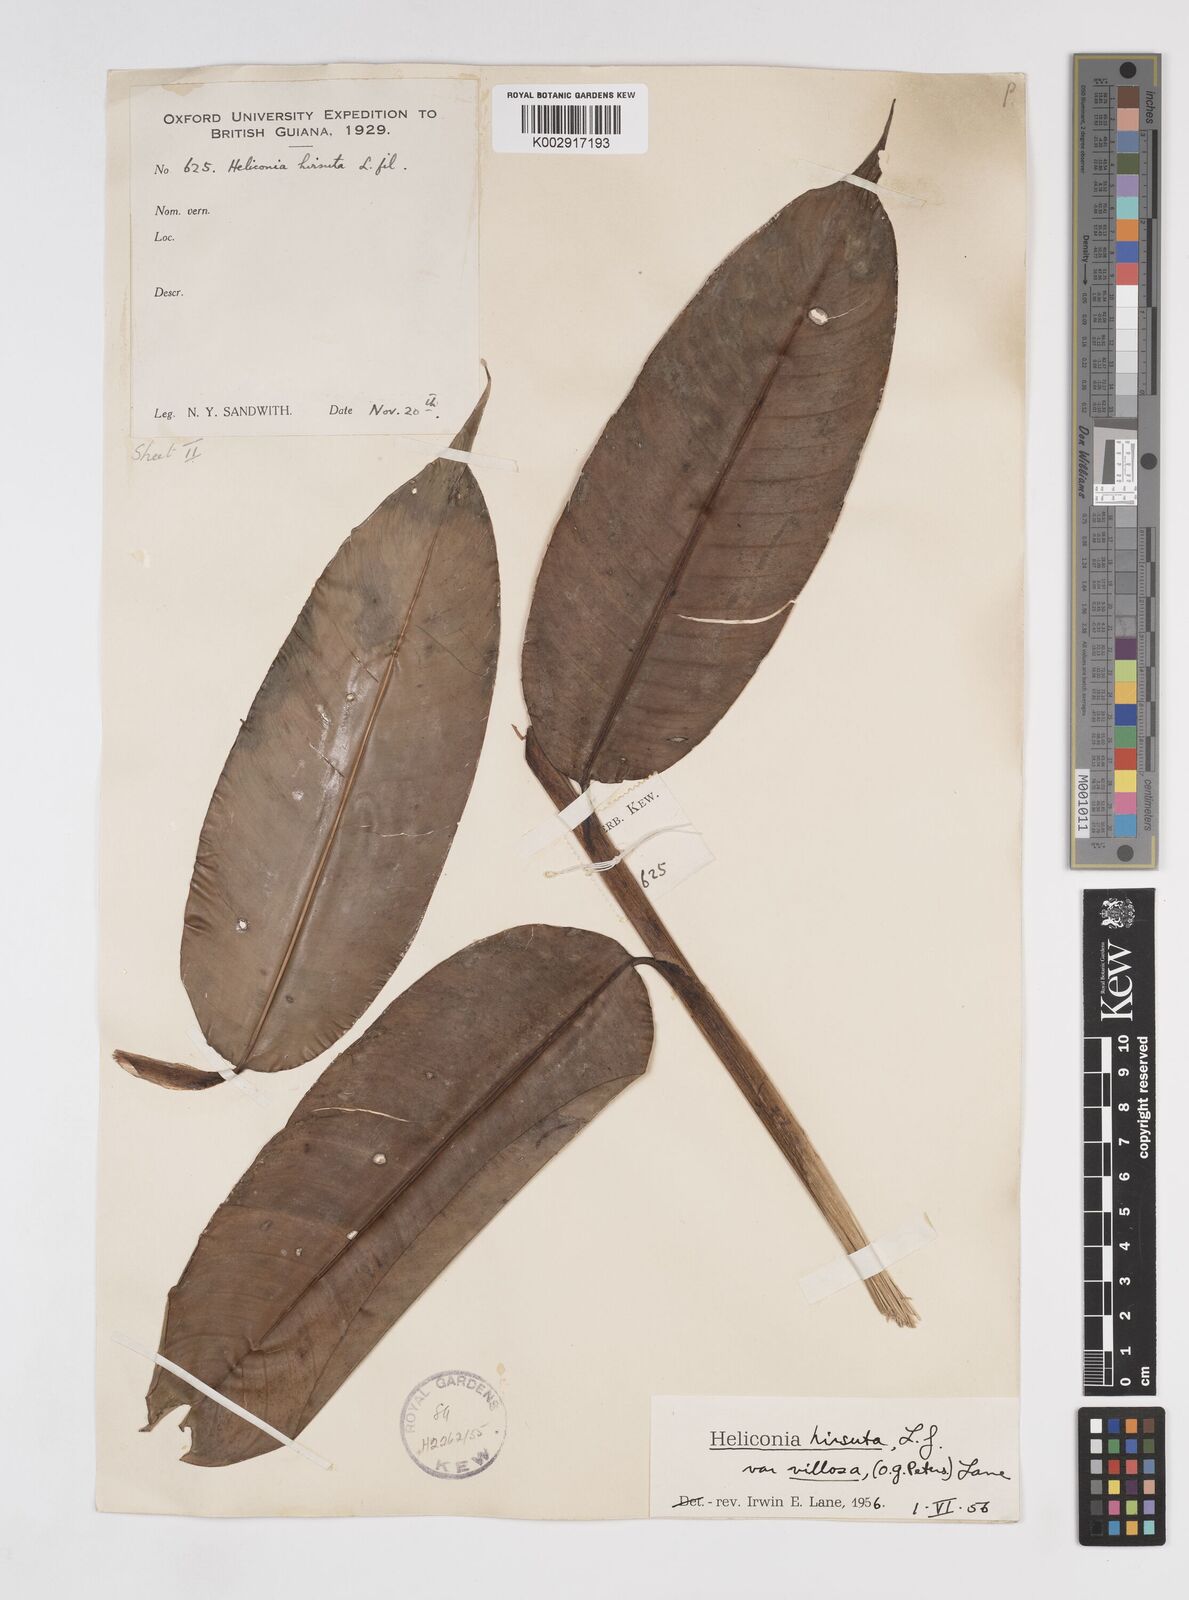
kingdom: Plantae
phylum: Tracheophyta
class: Liliopsida
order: Zingiberales
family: Heliconiaceae
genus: Heliconia
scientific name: Heliconia hirsuta
